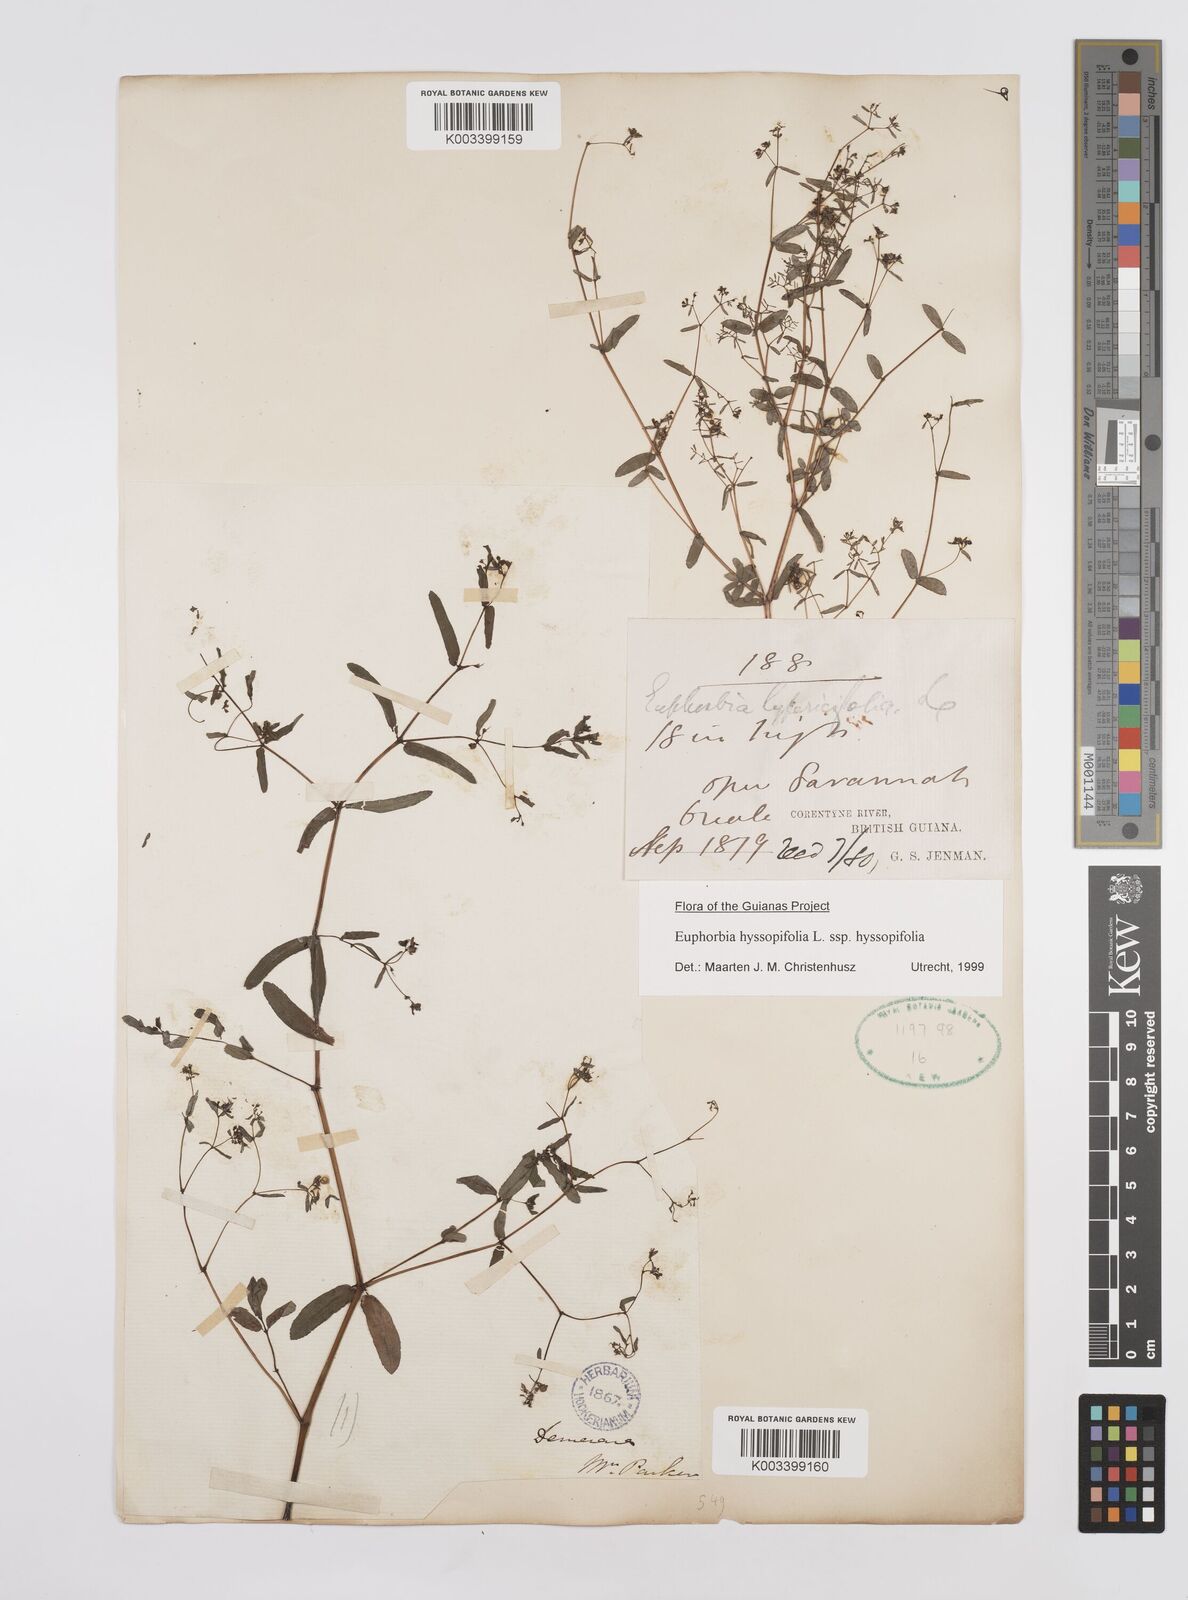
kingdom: Plantae
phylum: Tracheophyta
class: Magnoliopsida
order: Malpighiales
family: Euphorbiaceae
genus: Euphorbia
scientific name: Euphorbia hyssopifolia
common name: Hyssopleaf sandmat
